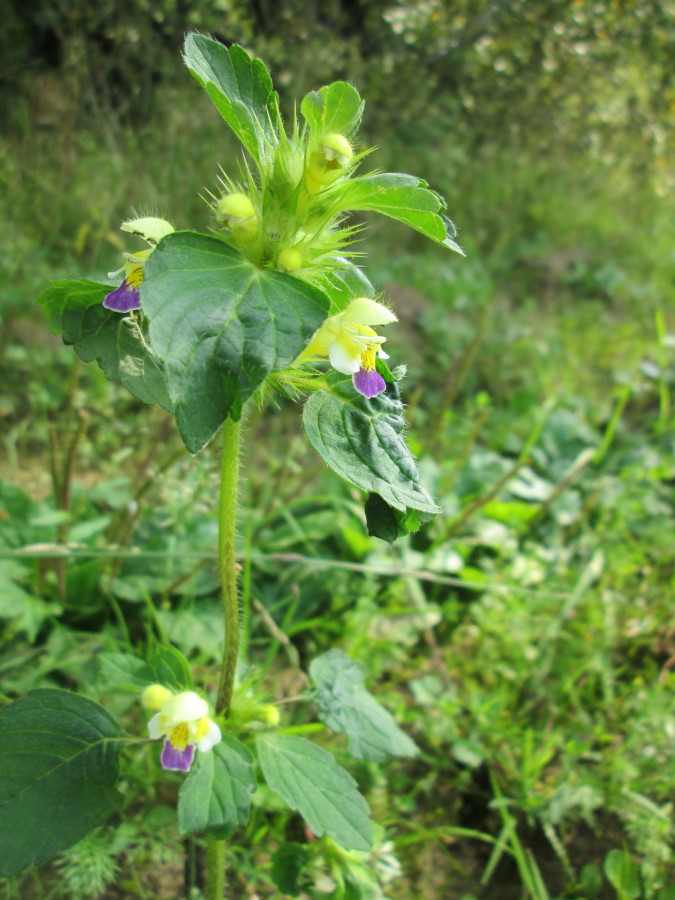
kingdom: Plantae
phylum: Tracheophyta
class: Magnoliopsida
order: Lamiales
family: Lamiaceae
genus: Galeopsis
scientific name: Galeopsis speciosa
